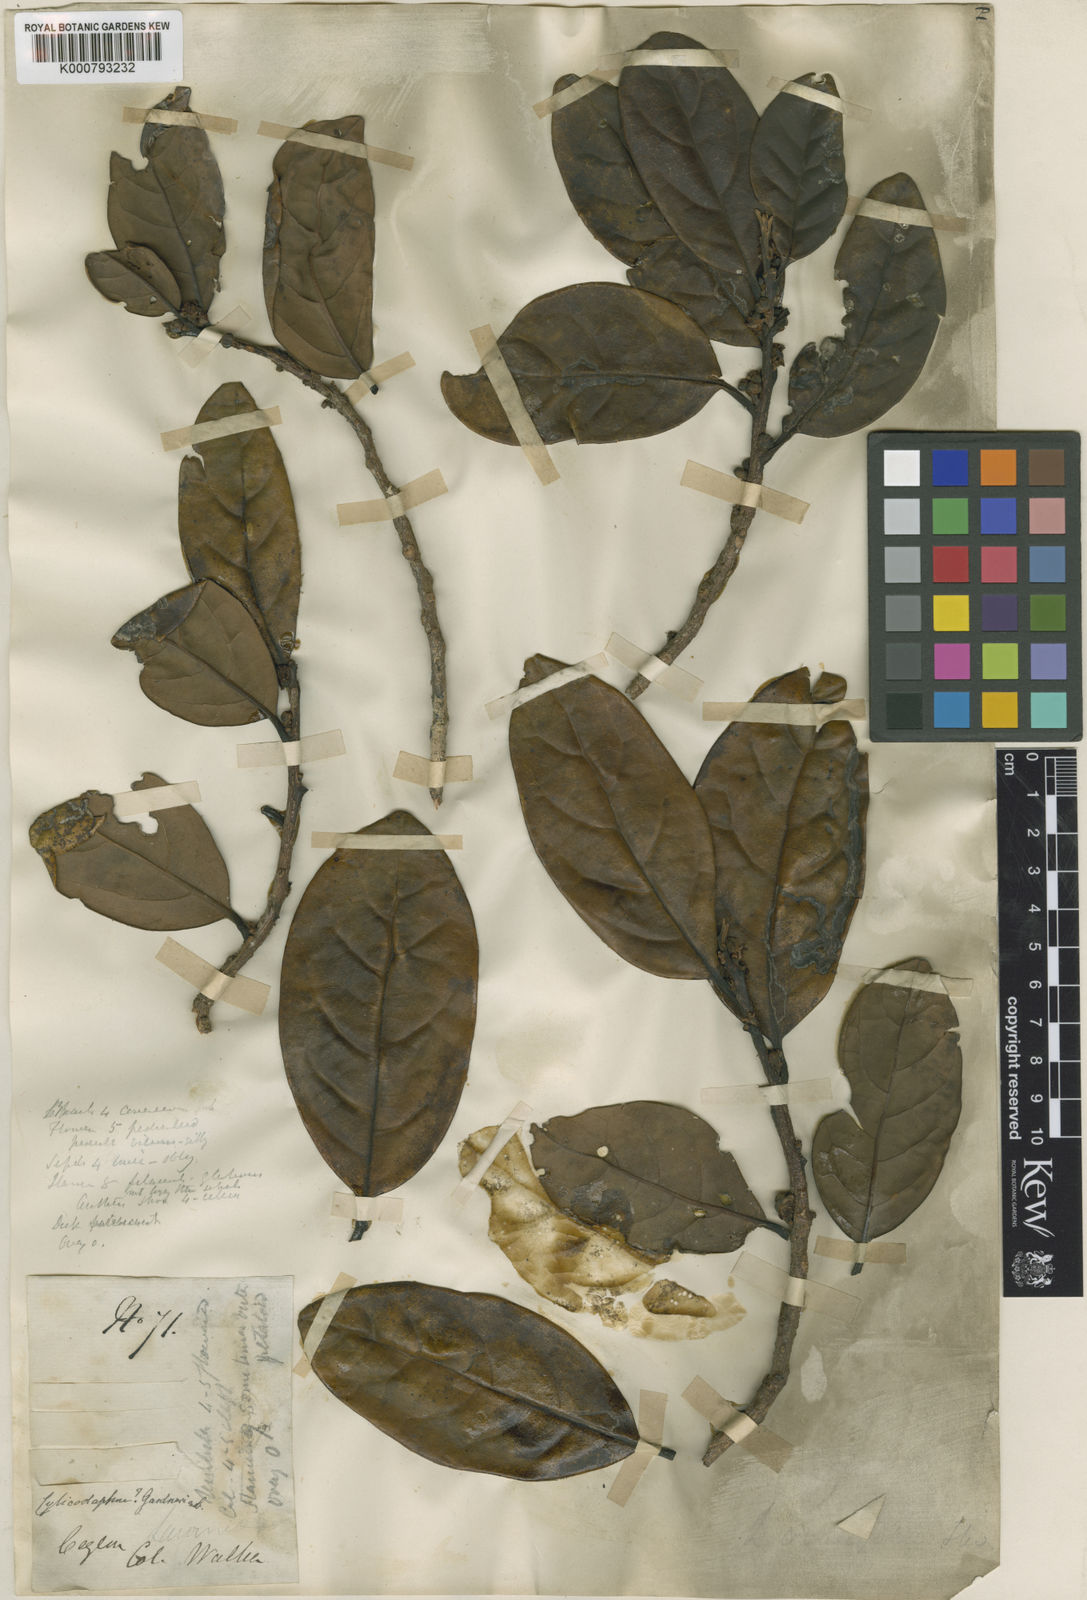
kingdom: Plantae
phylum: Tracheophyta
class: Magnoliopsida
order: Laurales
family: Lauraceae
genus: Litsea
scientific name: Litsea ovalifolia
